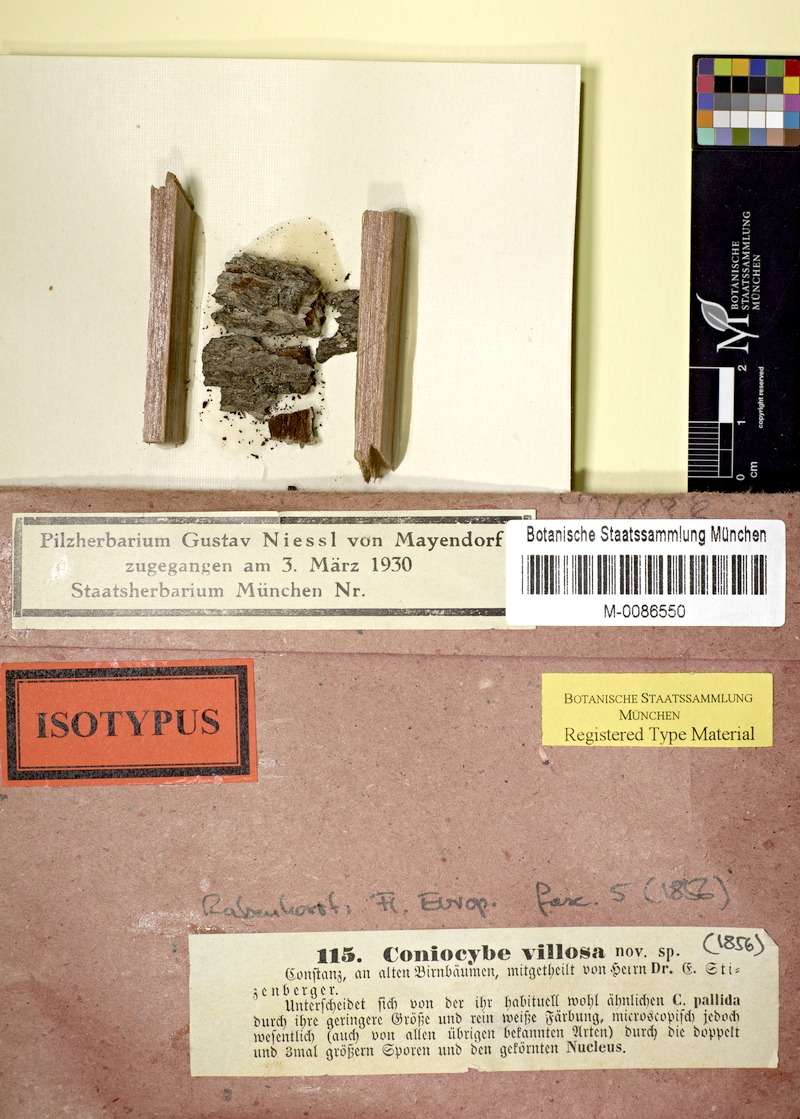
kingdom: Fungi
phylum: Ascomycota
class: Coniocybomycetes
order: Coniocybales
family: Coniocybaceae
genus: Sclerophora
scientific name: Sclerophora peronella
